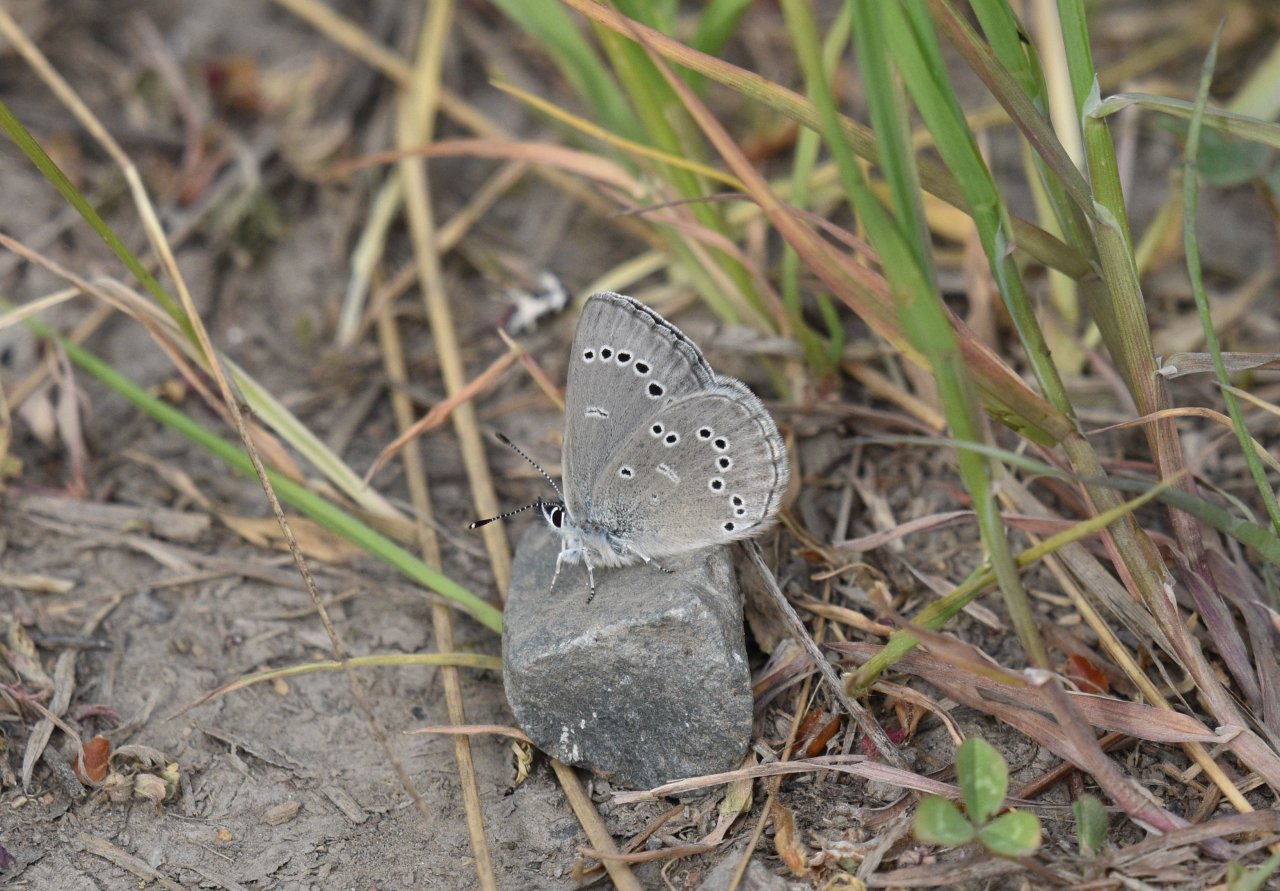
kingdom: Animalia
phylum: Arthropoda
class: Insecta
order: Lepidoptera
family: Lycaenidae
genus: Glaucopsyche
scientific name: Glaucopsyche lygdamus
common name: Silvery Blue
